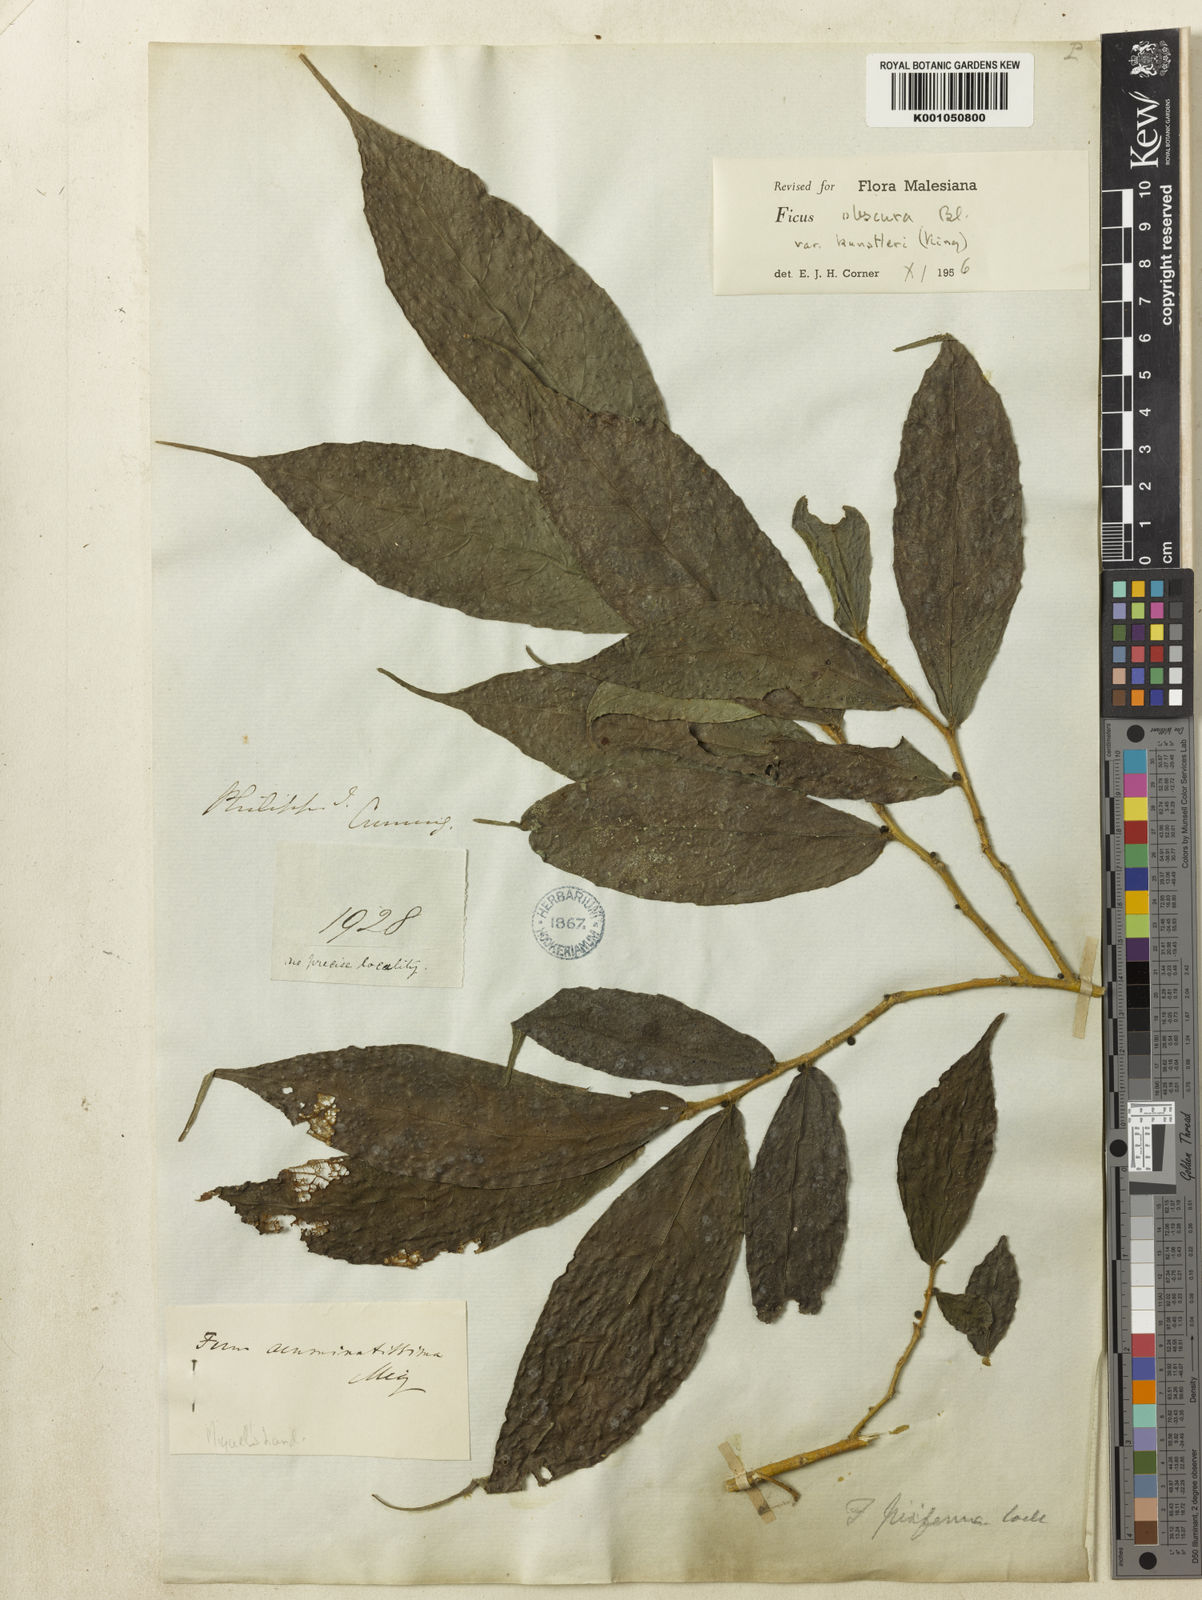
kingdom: Plantae
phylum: Tracheophyta
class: Magnoliopsida
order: Rosales
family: Moraceae
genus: Ficus
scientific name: Ficus obscura
